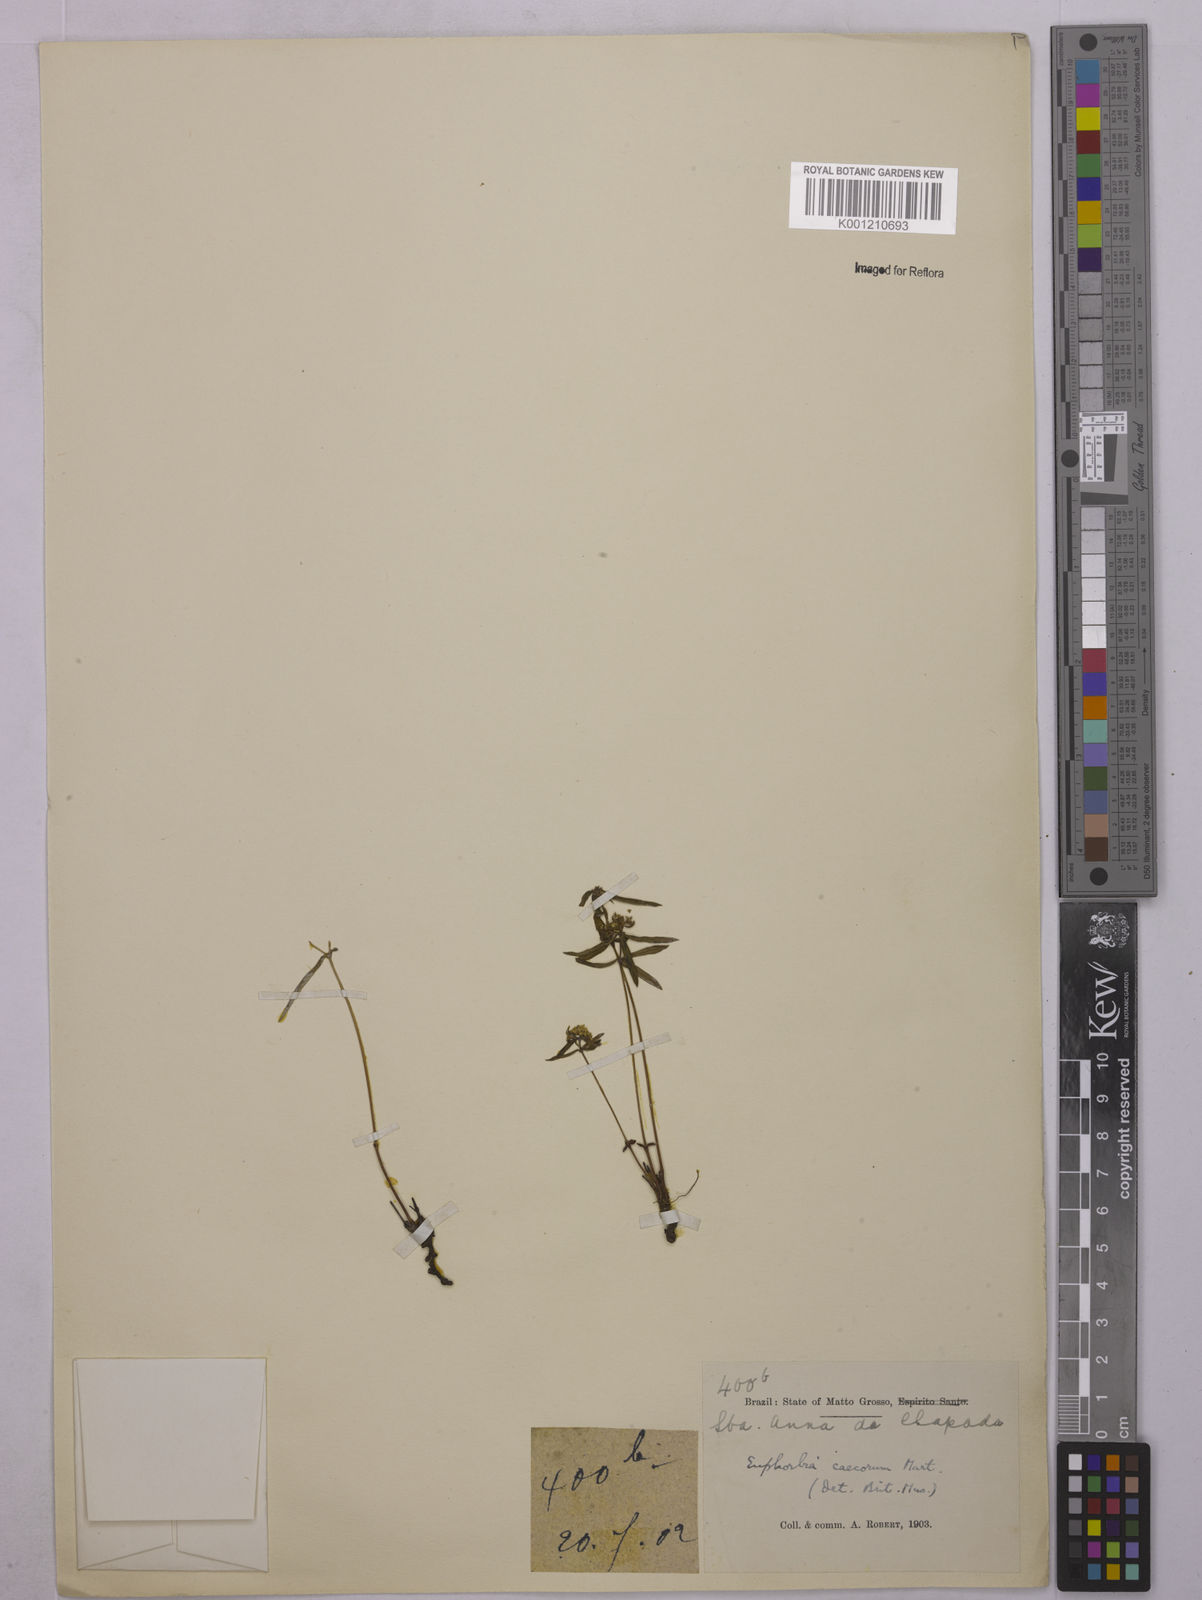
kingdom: Plantae
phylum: Tracheophyta
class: Magnoliopsida
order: Malpighiales
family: Euphorbiaceae
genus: Euphorbia
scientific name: Euphorbia potentilloides
